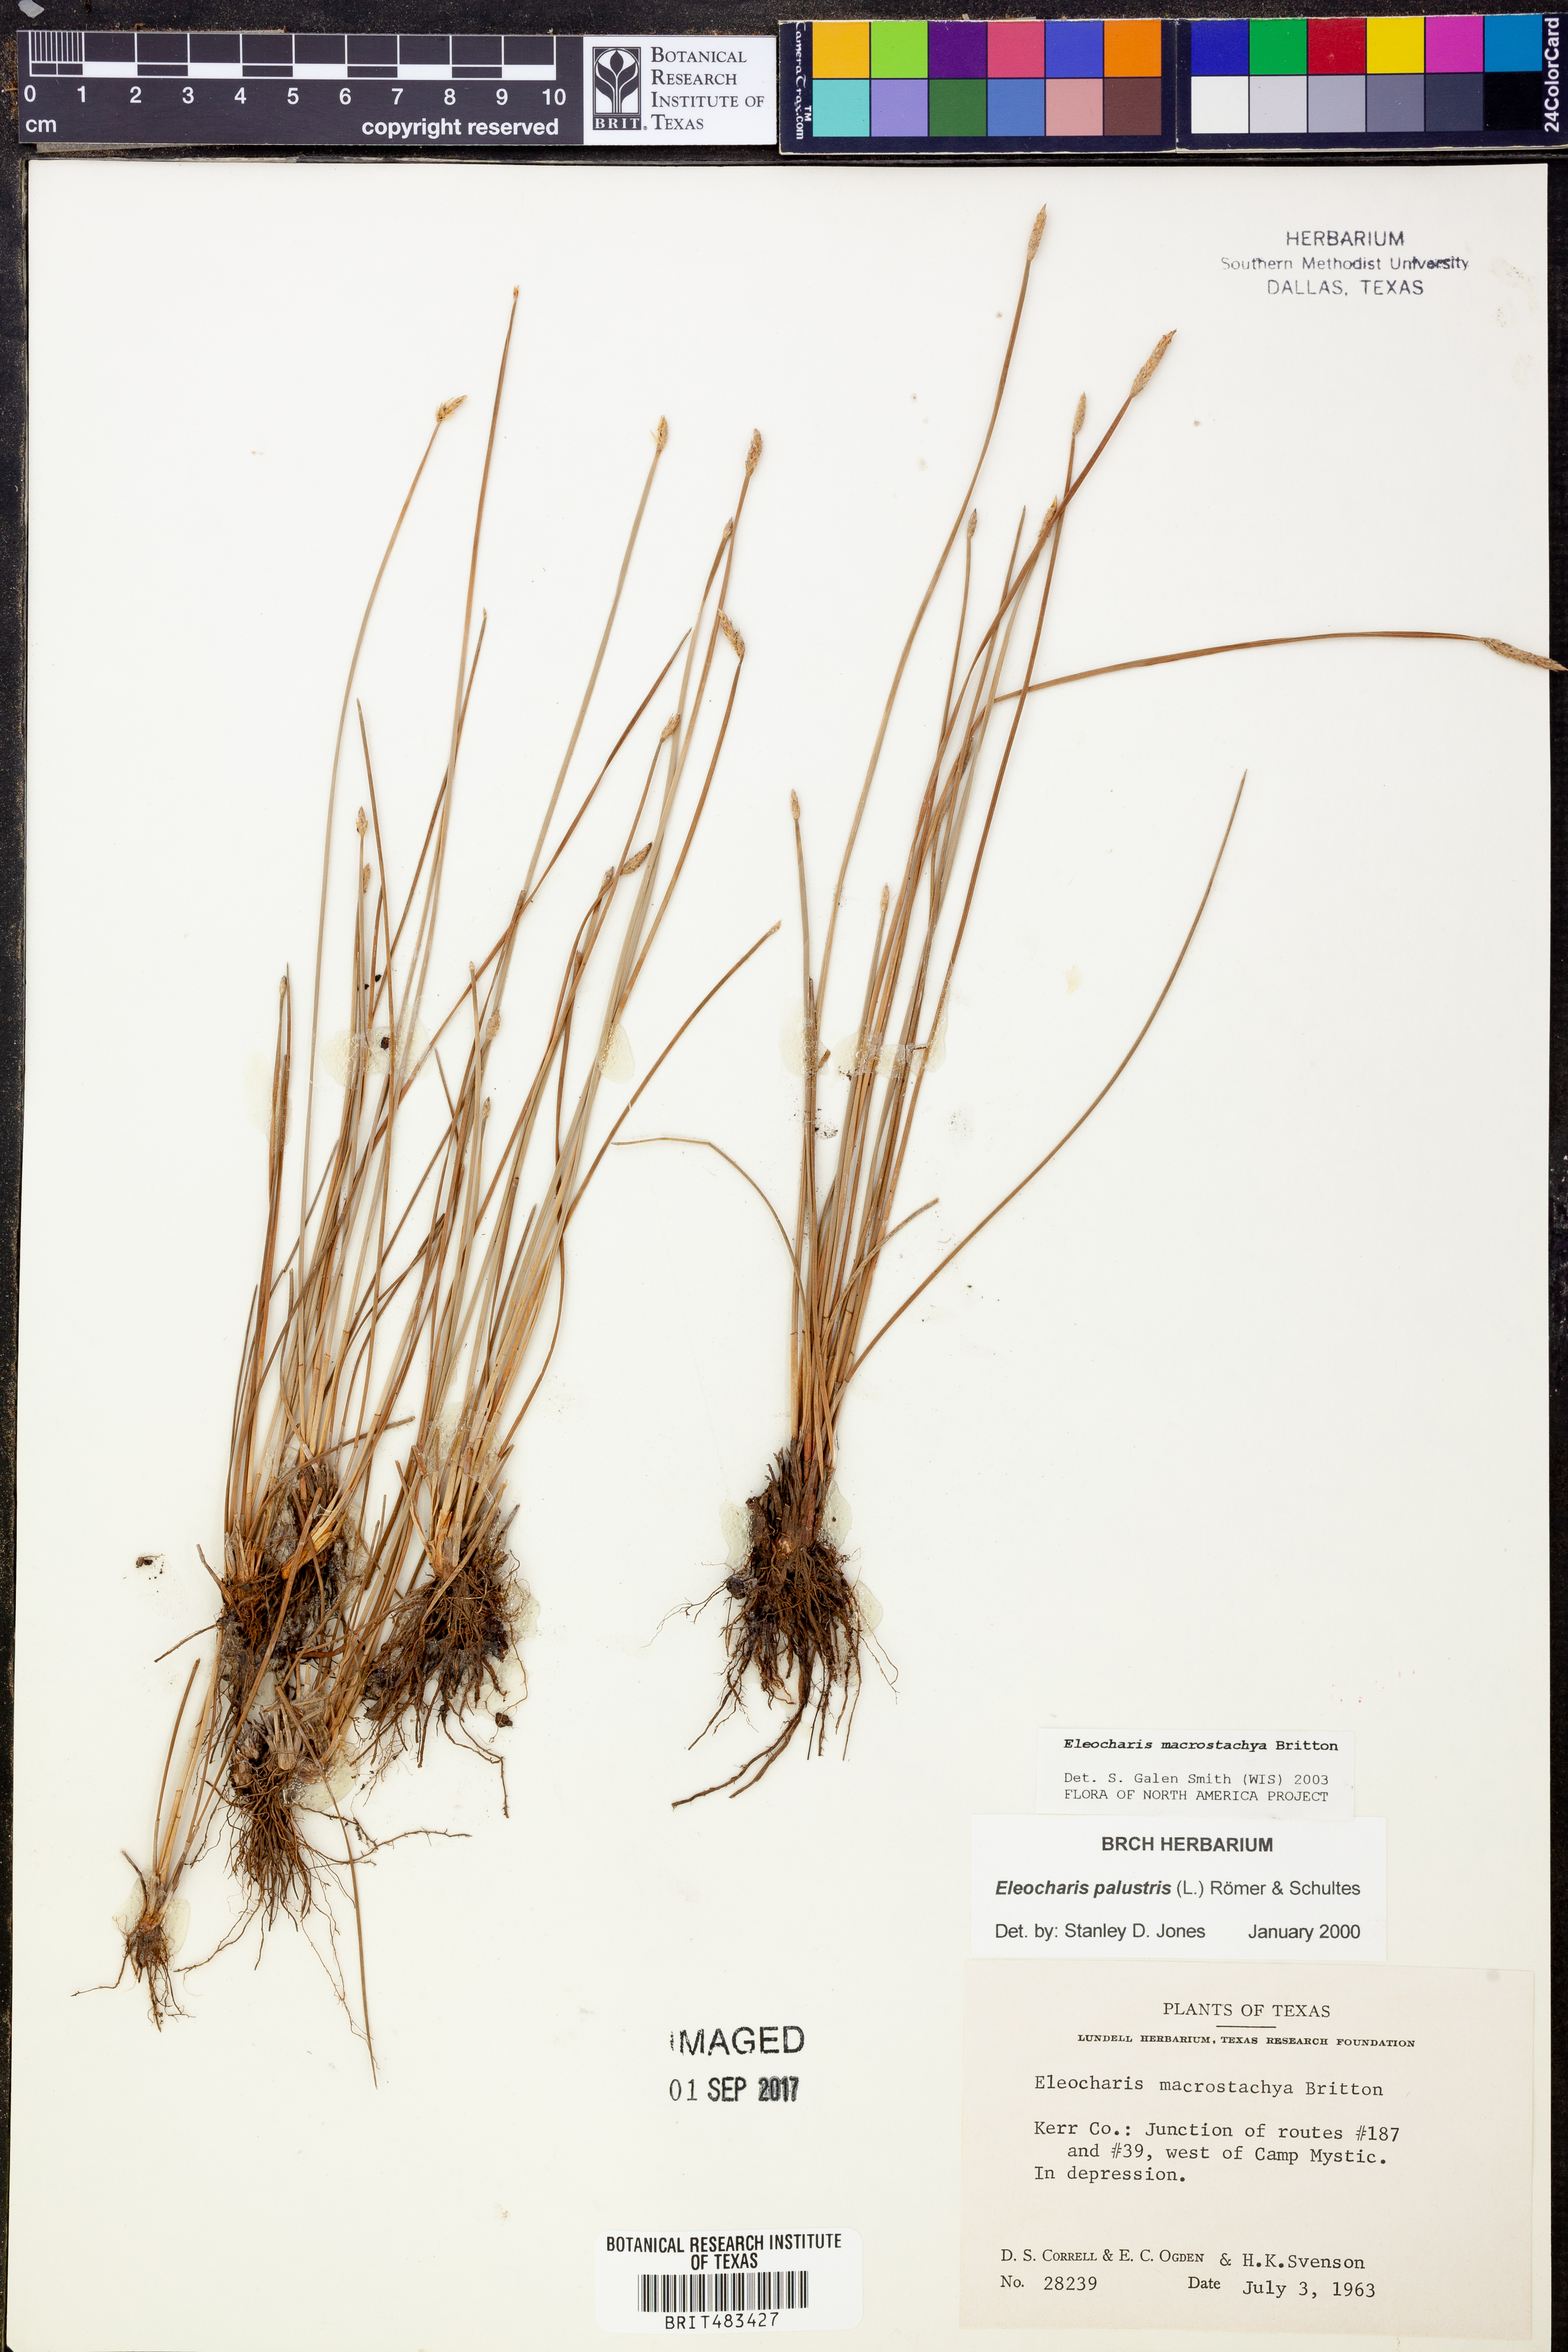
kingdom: Plantae
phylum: Tracheophyta
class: Liliopsida
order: Poales
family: Cyperaceae
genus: Eleocharis
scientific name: Eleocharis macrostachya
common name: Pale spikerush
